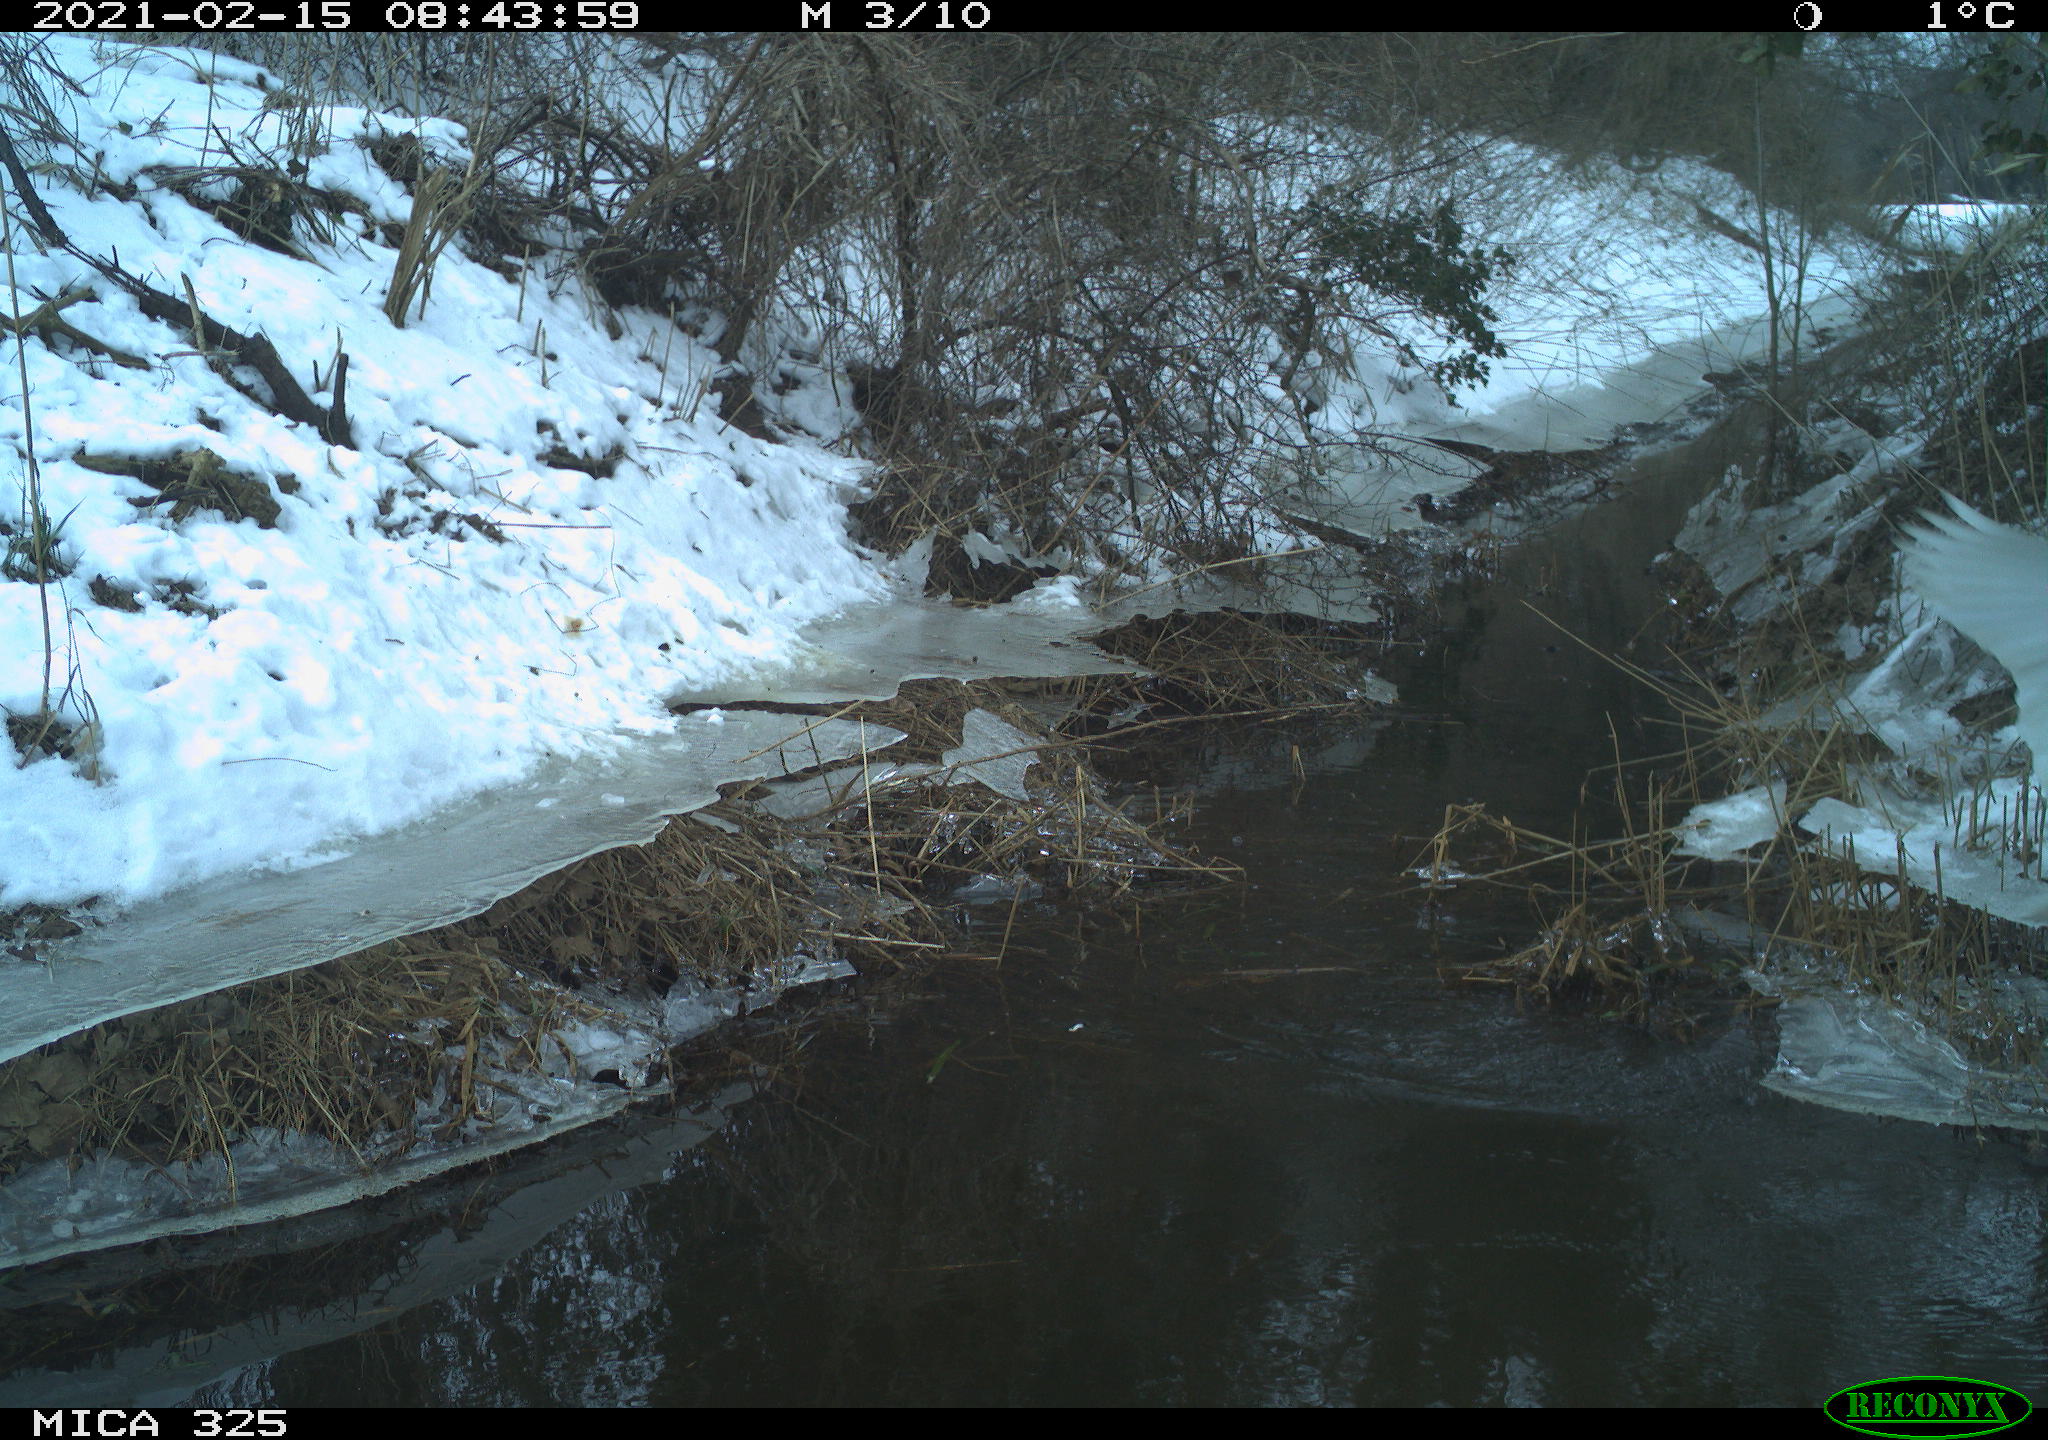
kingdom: Animalia
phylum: Chordata
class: Aves
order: Pelecaniformes
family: Ardeidae
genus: Ardea
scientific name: Ardea alba
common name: Great egret
